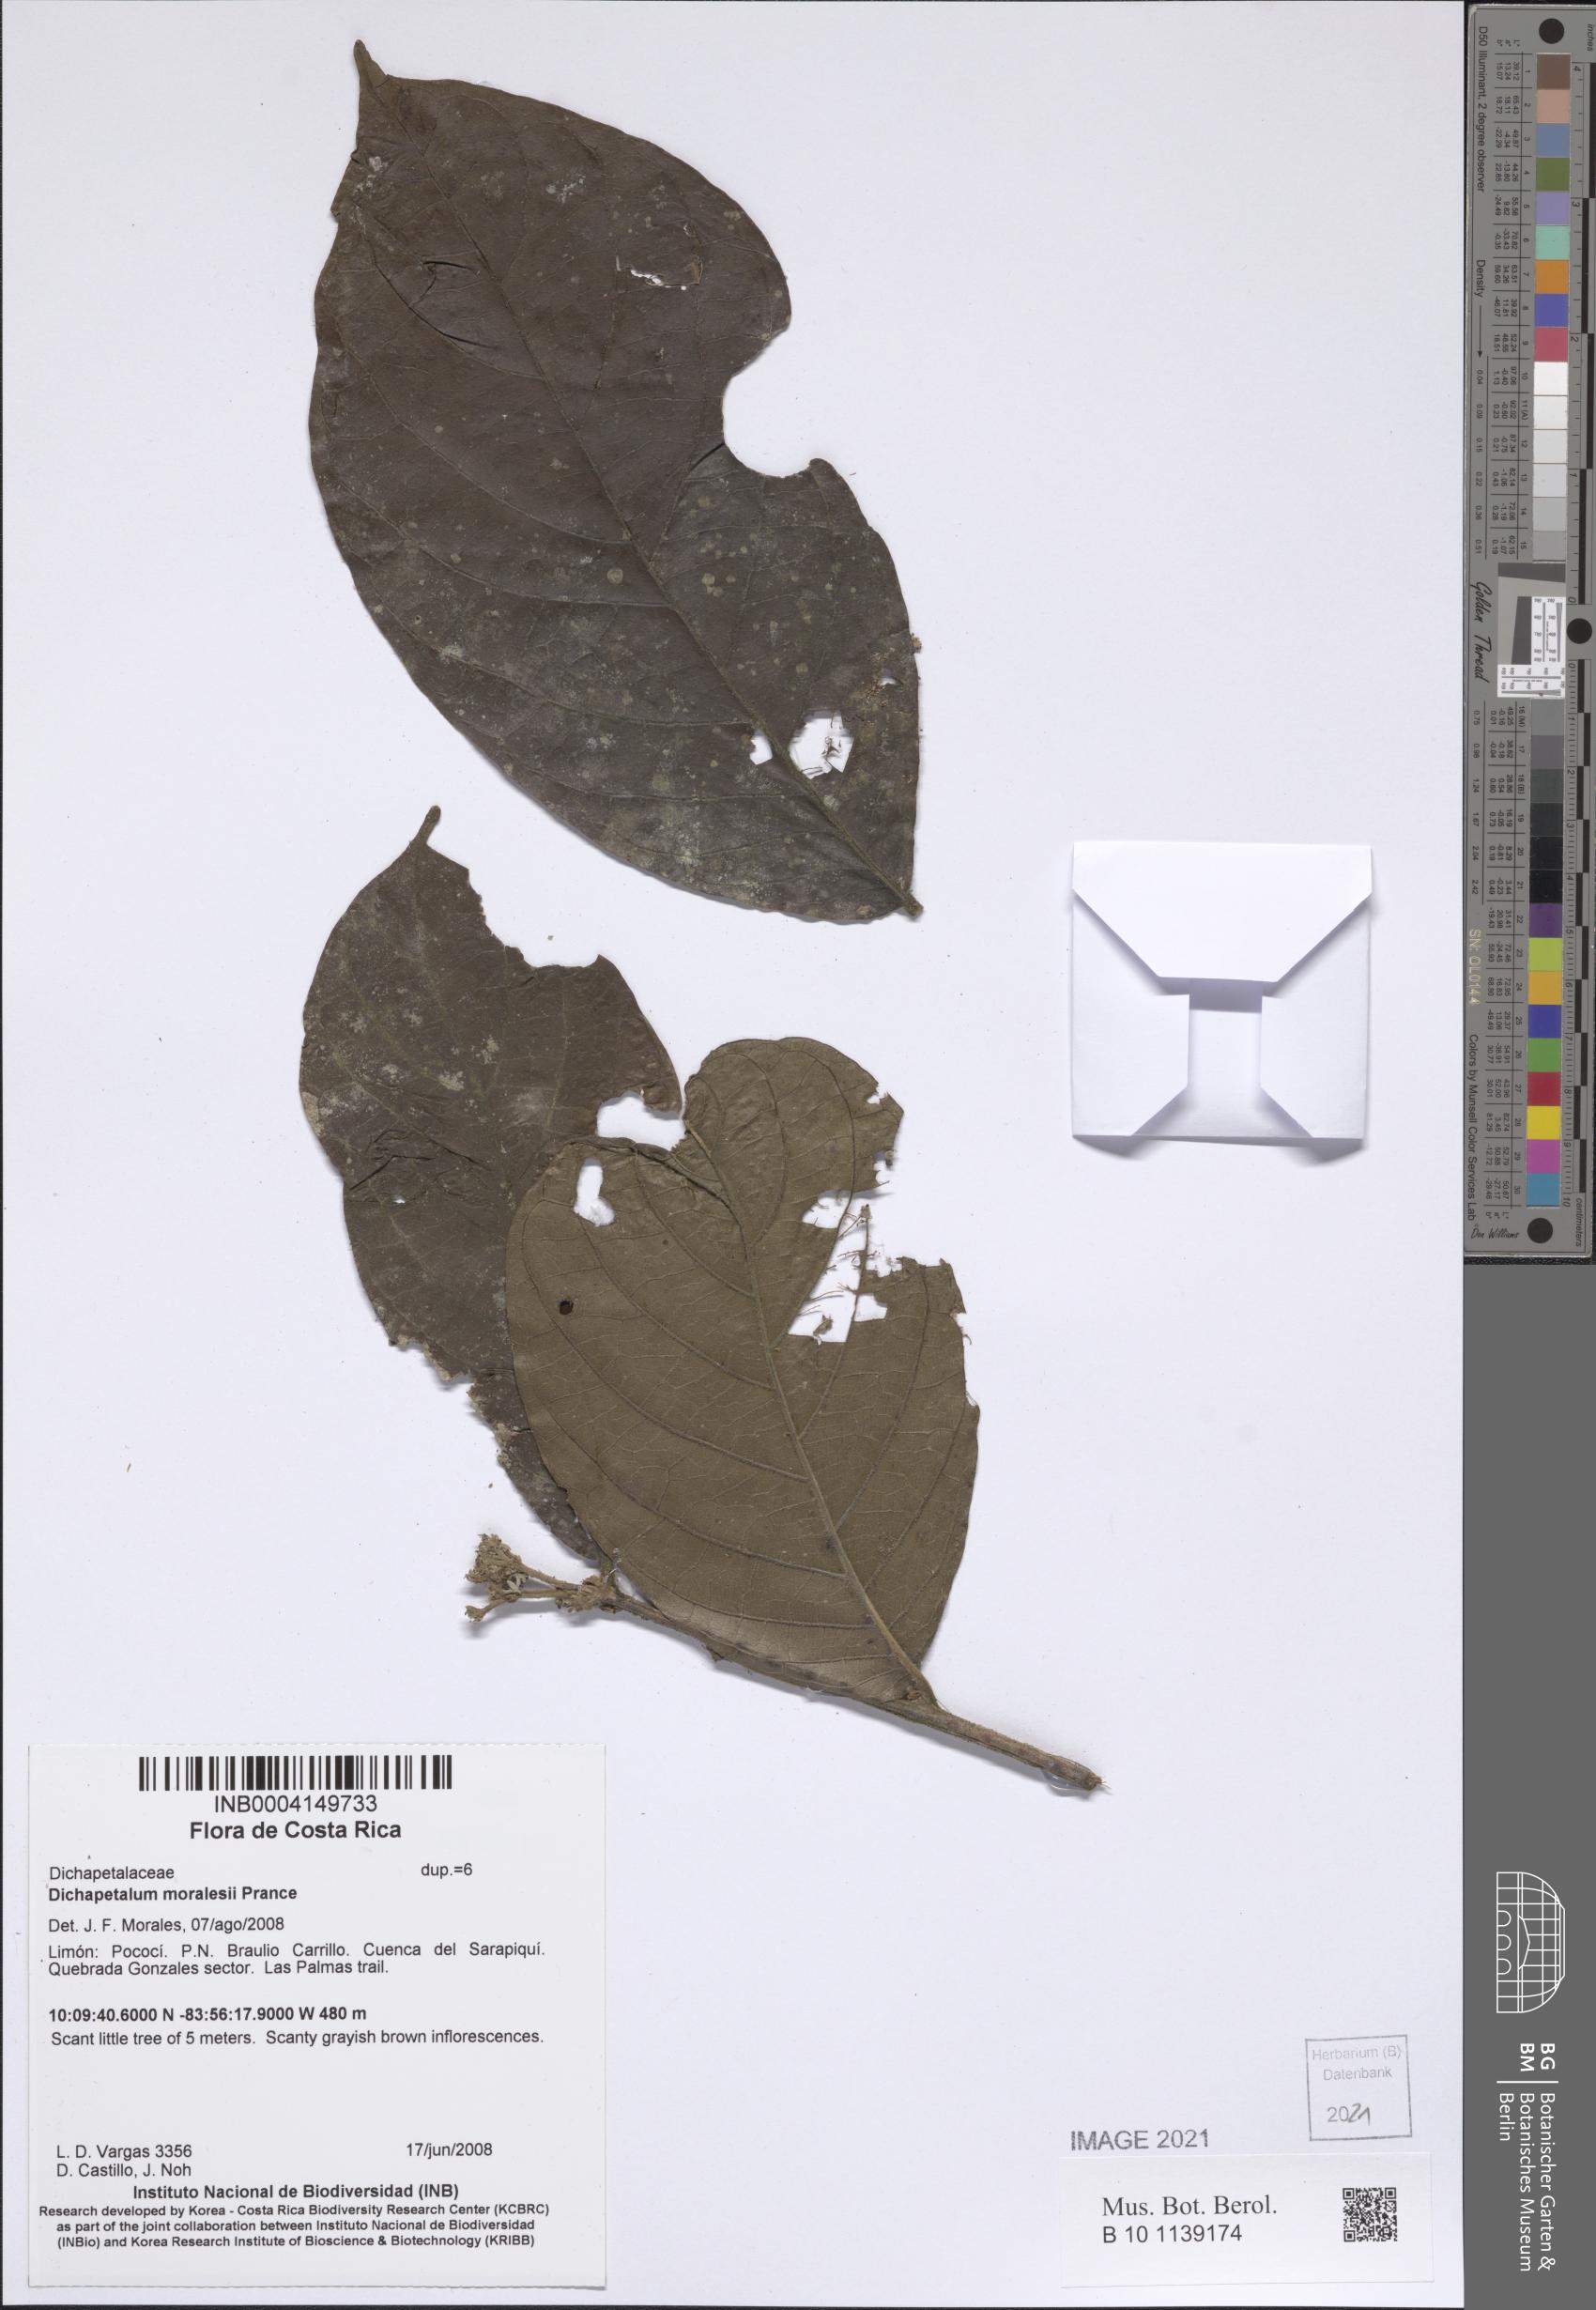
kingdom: Plantae
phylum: Tracheophyta
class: Magnoliopsida
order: Malpighiales
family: Dichapetalaceae
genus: Dichapetalum
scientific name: Dichapetalum moralesii
